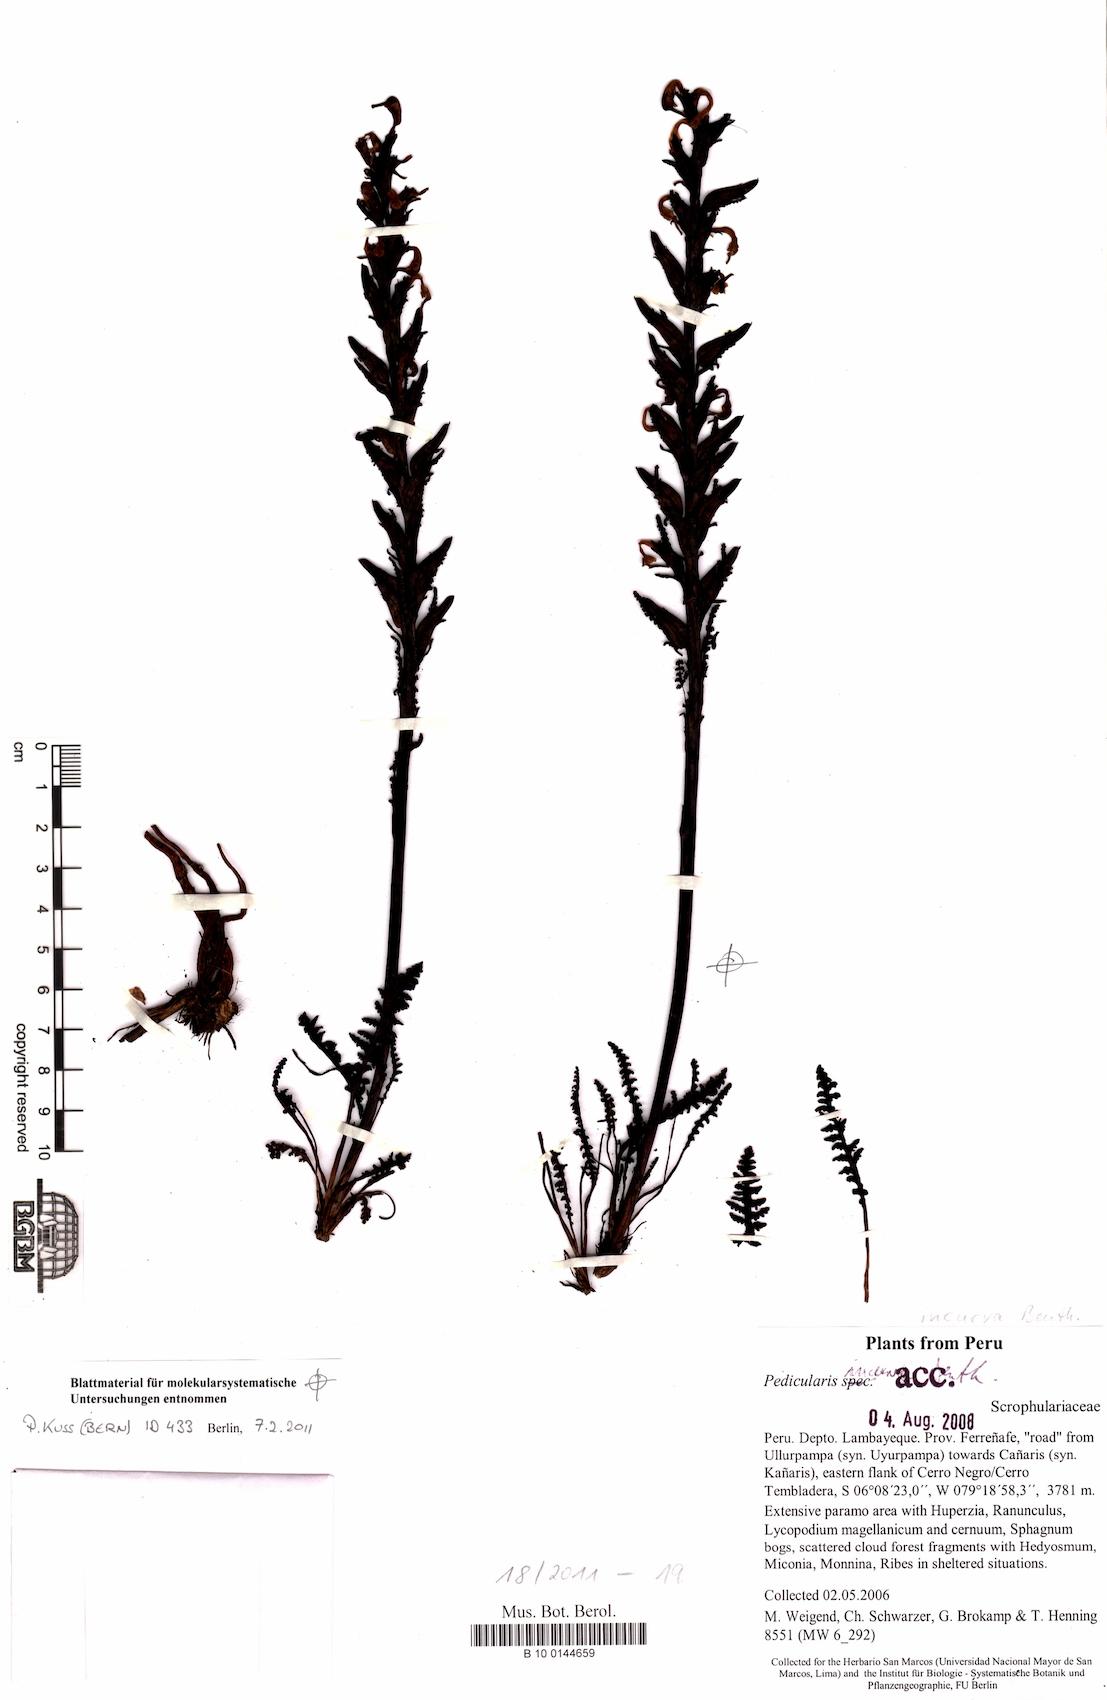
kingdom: Plantae
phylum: Tracheophyta
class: Magnoliopsida
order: Lamiales
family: Orobanchaceae
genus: Pedicularis
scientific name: Pedicularis incurva
